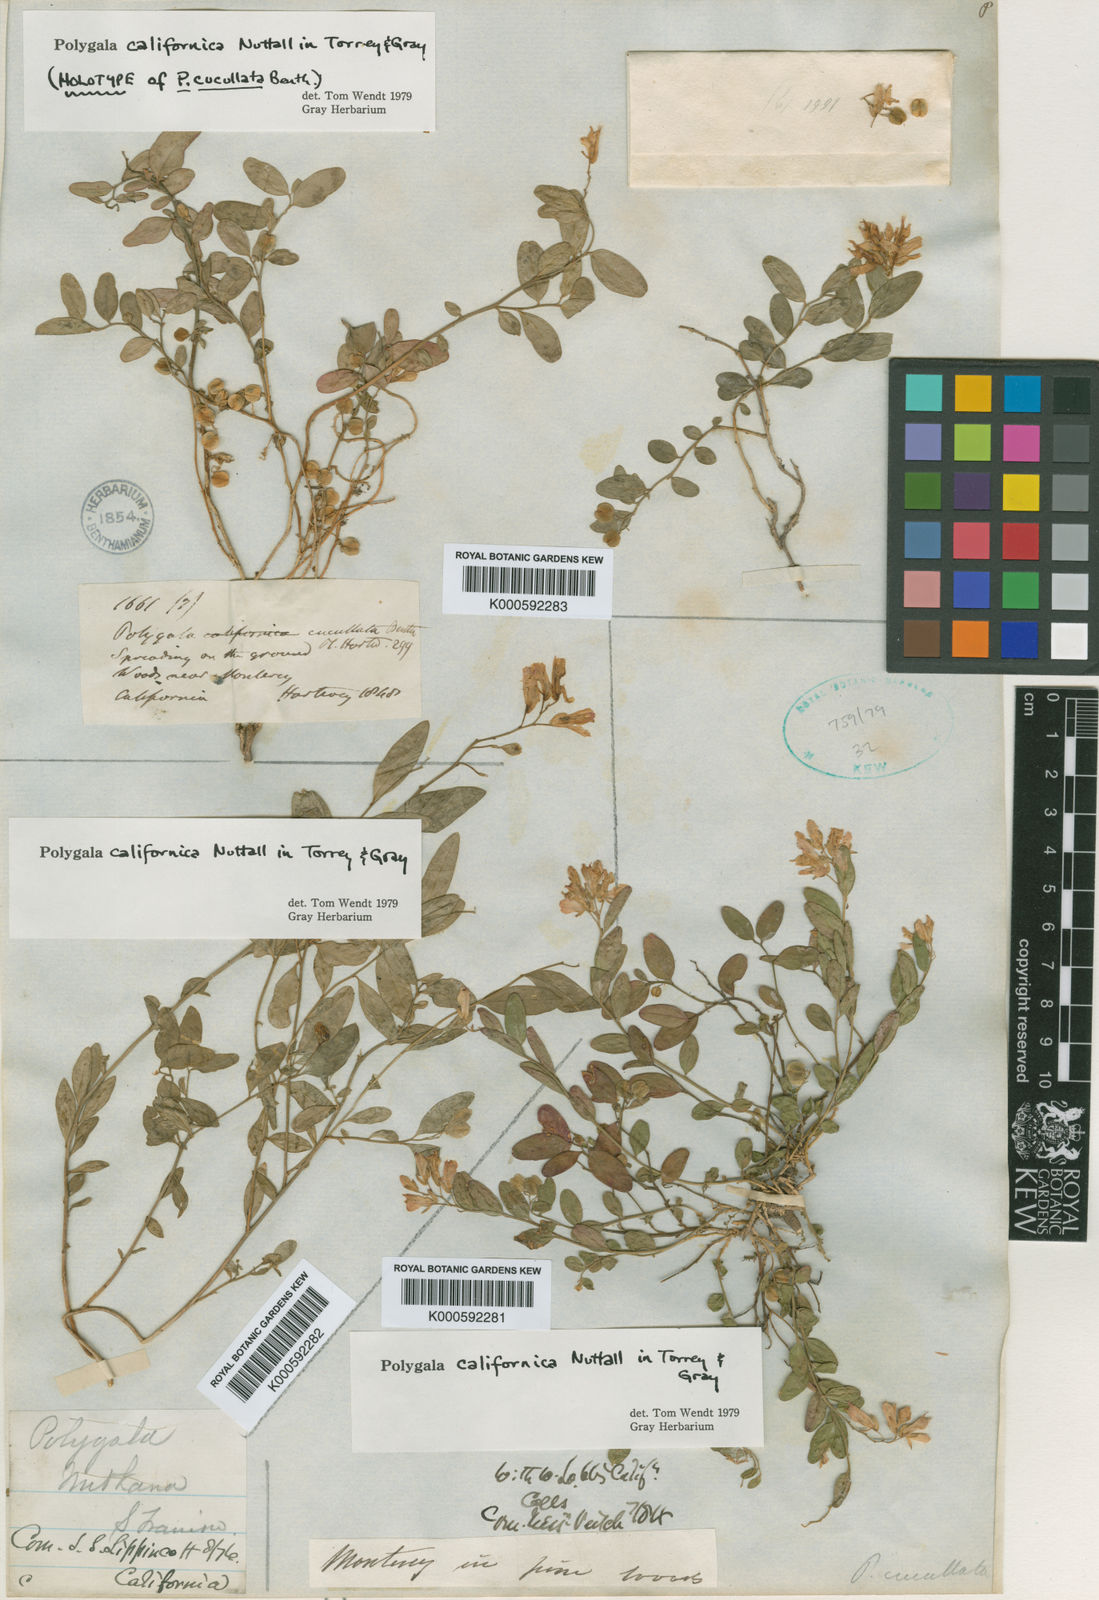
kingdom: Plantae
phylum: Tracheophyta
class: Magnoliopsida
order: Fabales
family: Polygalaceae
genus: Rhinotropis
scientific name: Rhinotropis californica
